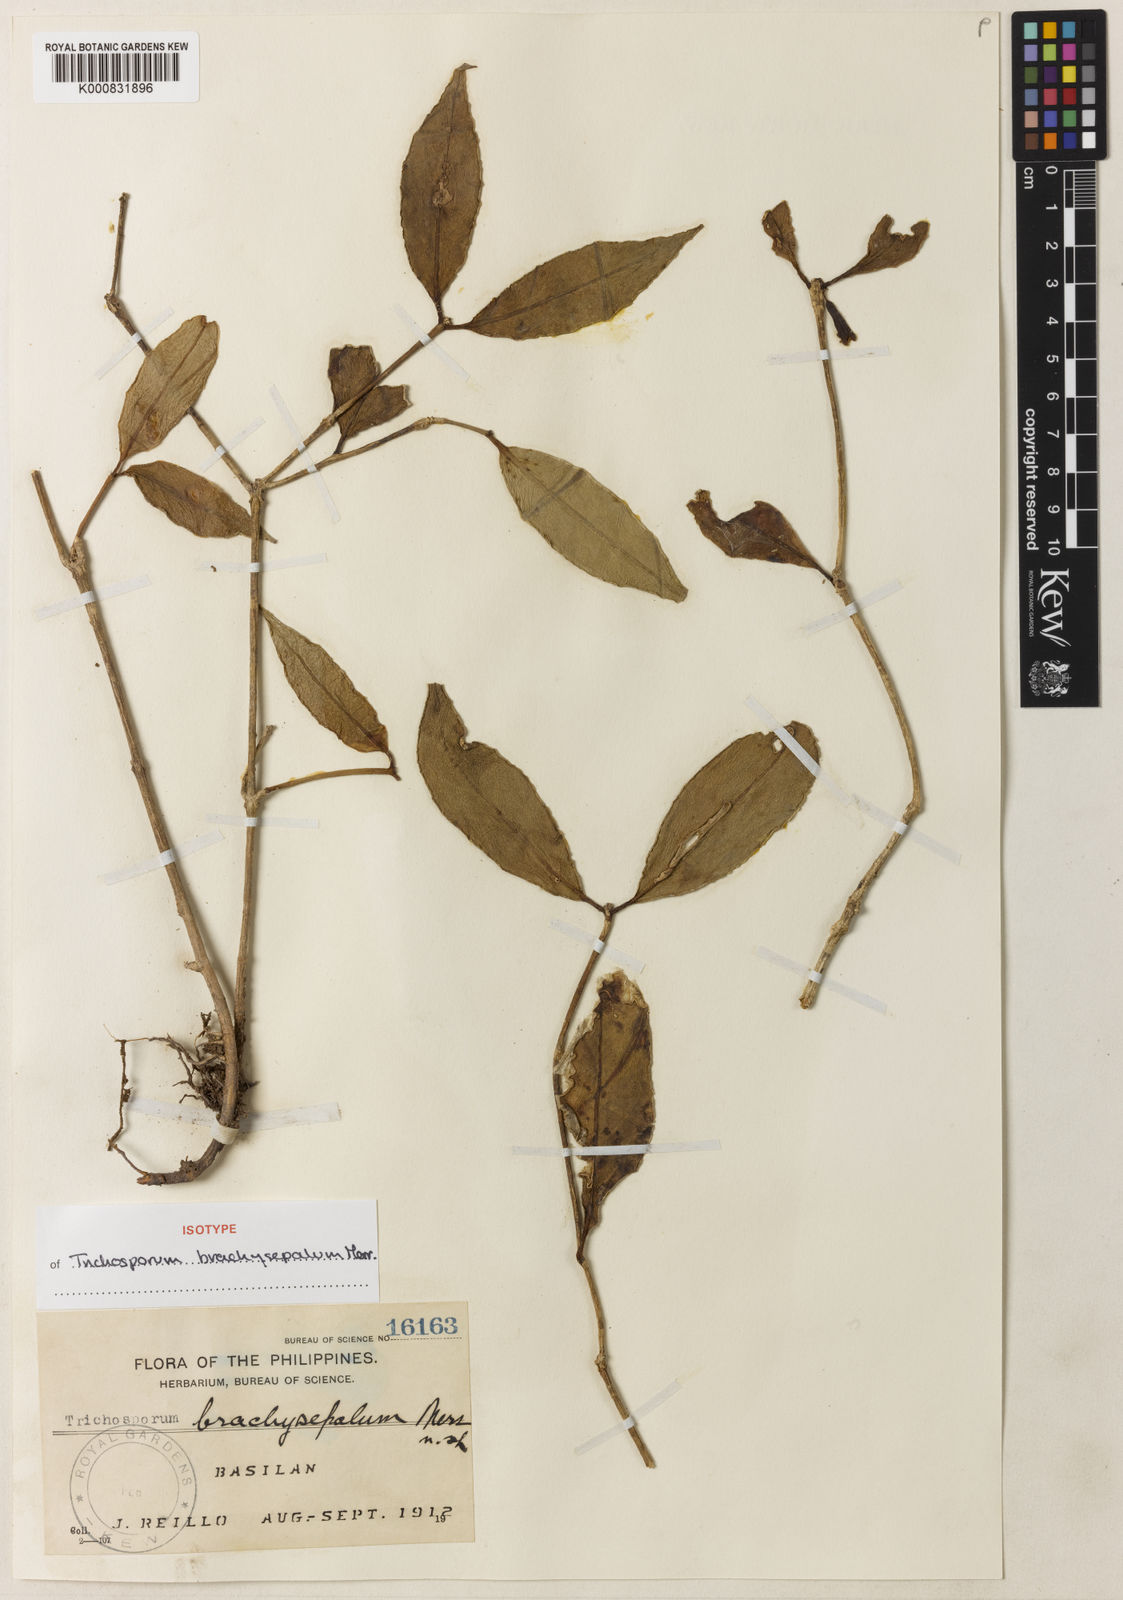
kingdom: Plantae
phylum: Tracheophyta
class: Magnoliopsida
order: Lamiales
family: Gesneriaceae
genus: Aeschynanthus
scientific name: Aeschynanthus brachyphyllus
